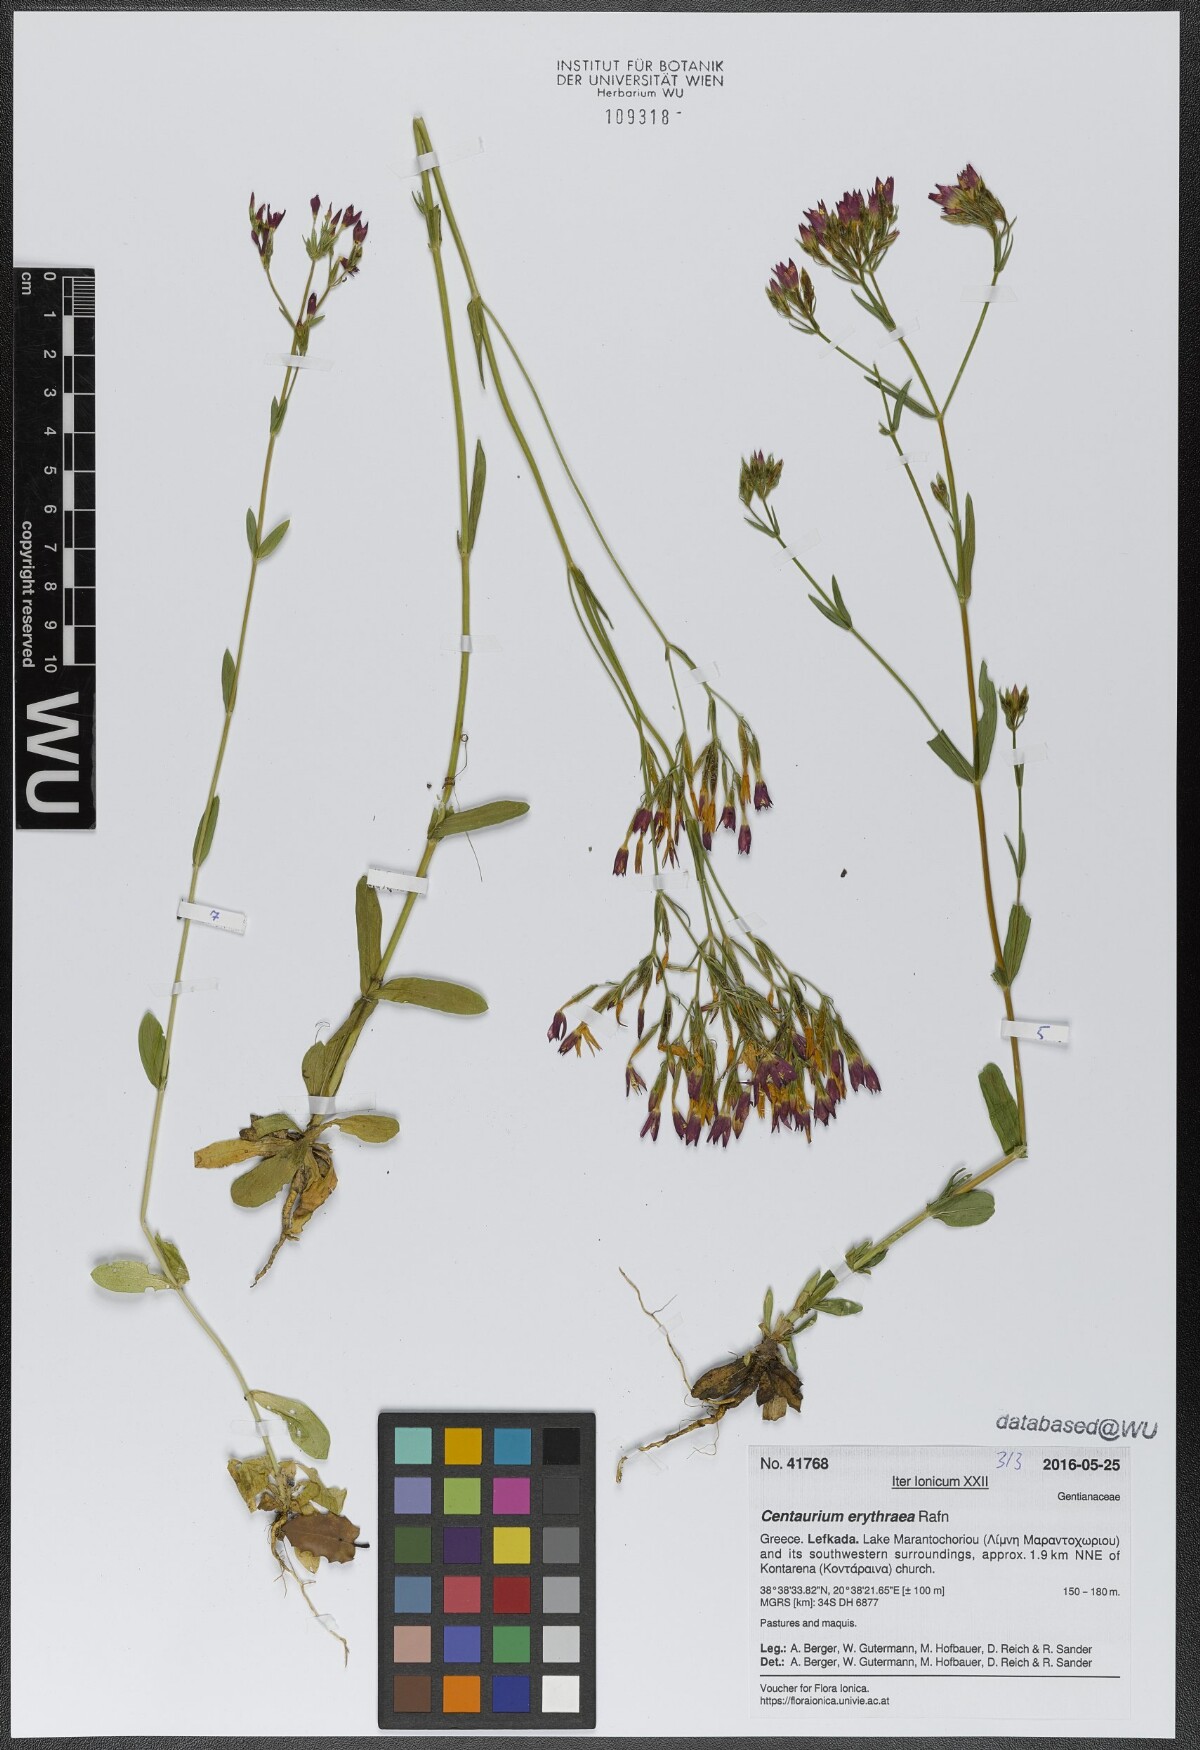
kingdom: Plantae
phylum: Tracheophyta
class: Magnoliopsida
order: Gentianales
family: Gentianaceae
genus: Centaurium
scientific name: Centaurium erythraea
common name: Common centaury
